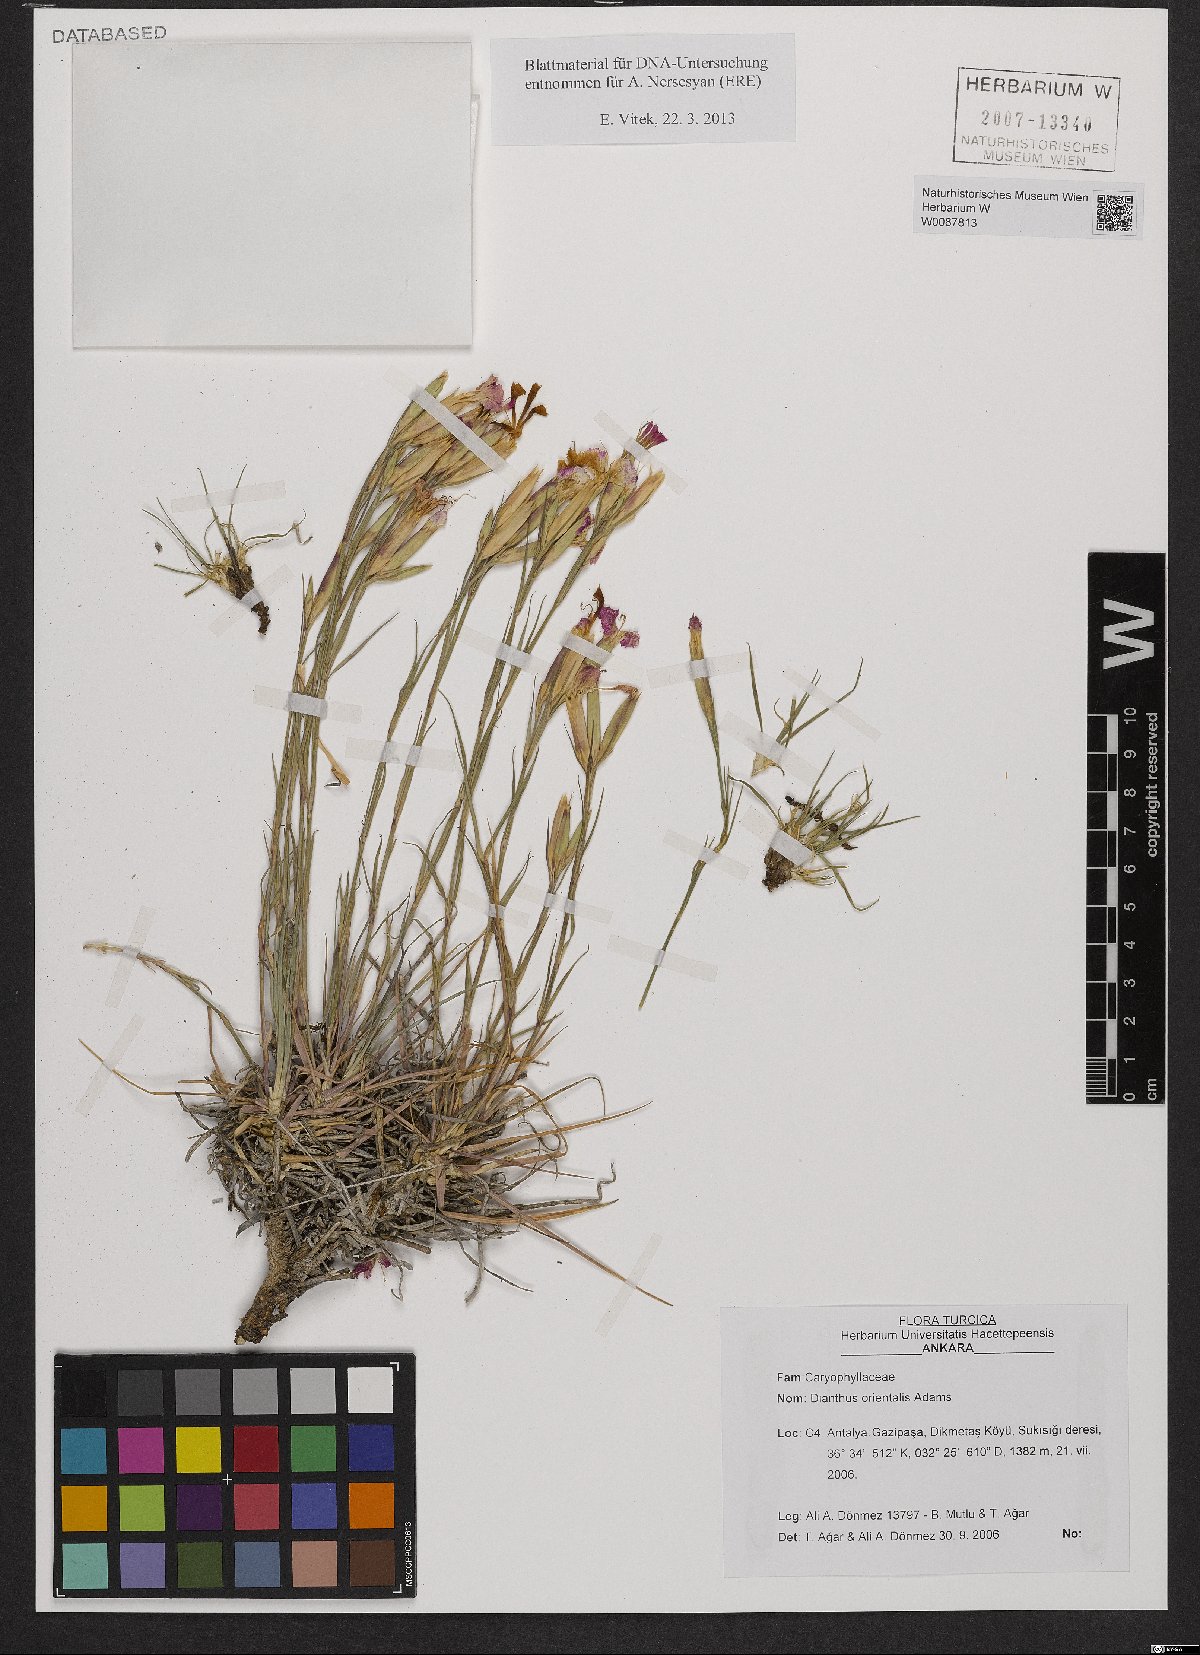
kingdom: Plantae
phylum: Tracheophyta
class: Magnoliopsida
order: Caryophyllales
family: Caryophyllaceae
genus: Dianthus
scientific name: Dianthus orientalis
